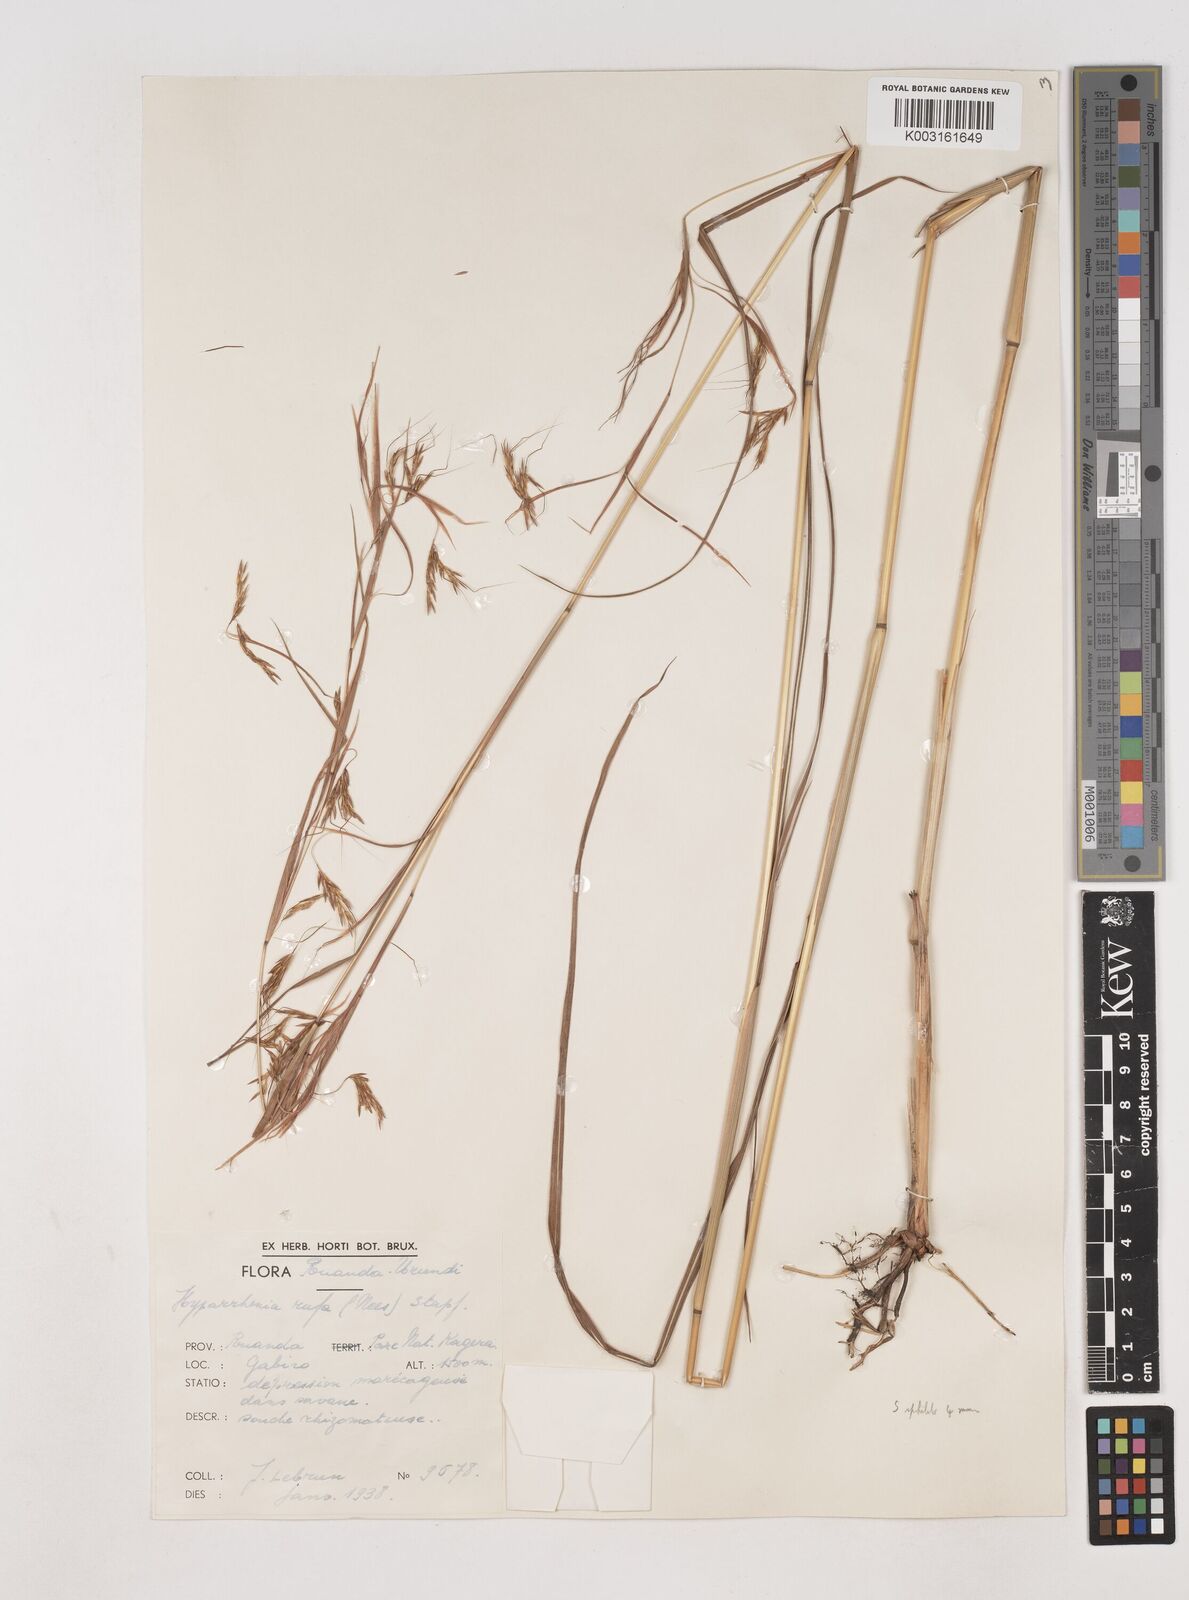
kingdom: Plantae
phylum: Tracheophyta
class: Liliopsida
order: Poales
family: Poaceae
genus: Hyparrhenia
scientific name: Hyparrhenia rufa
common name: Jaraguagrass
